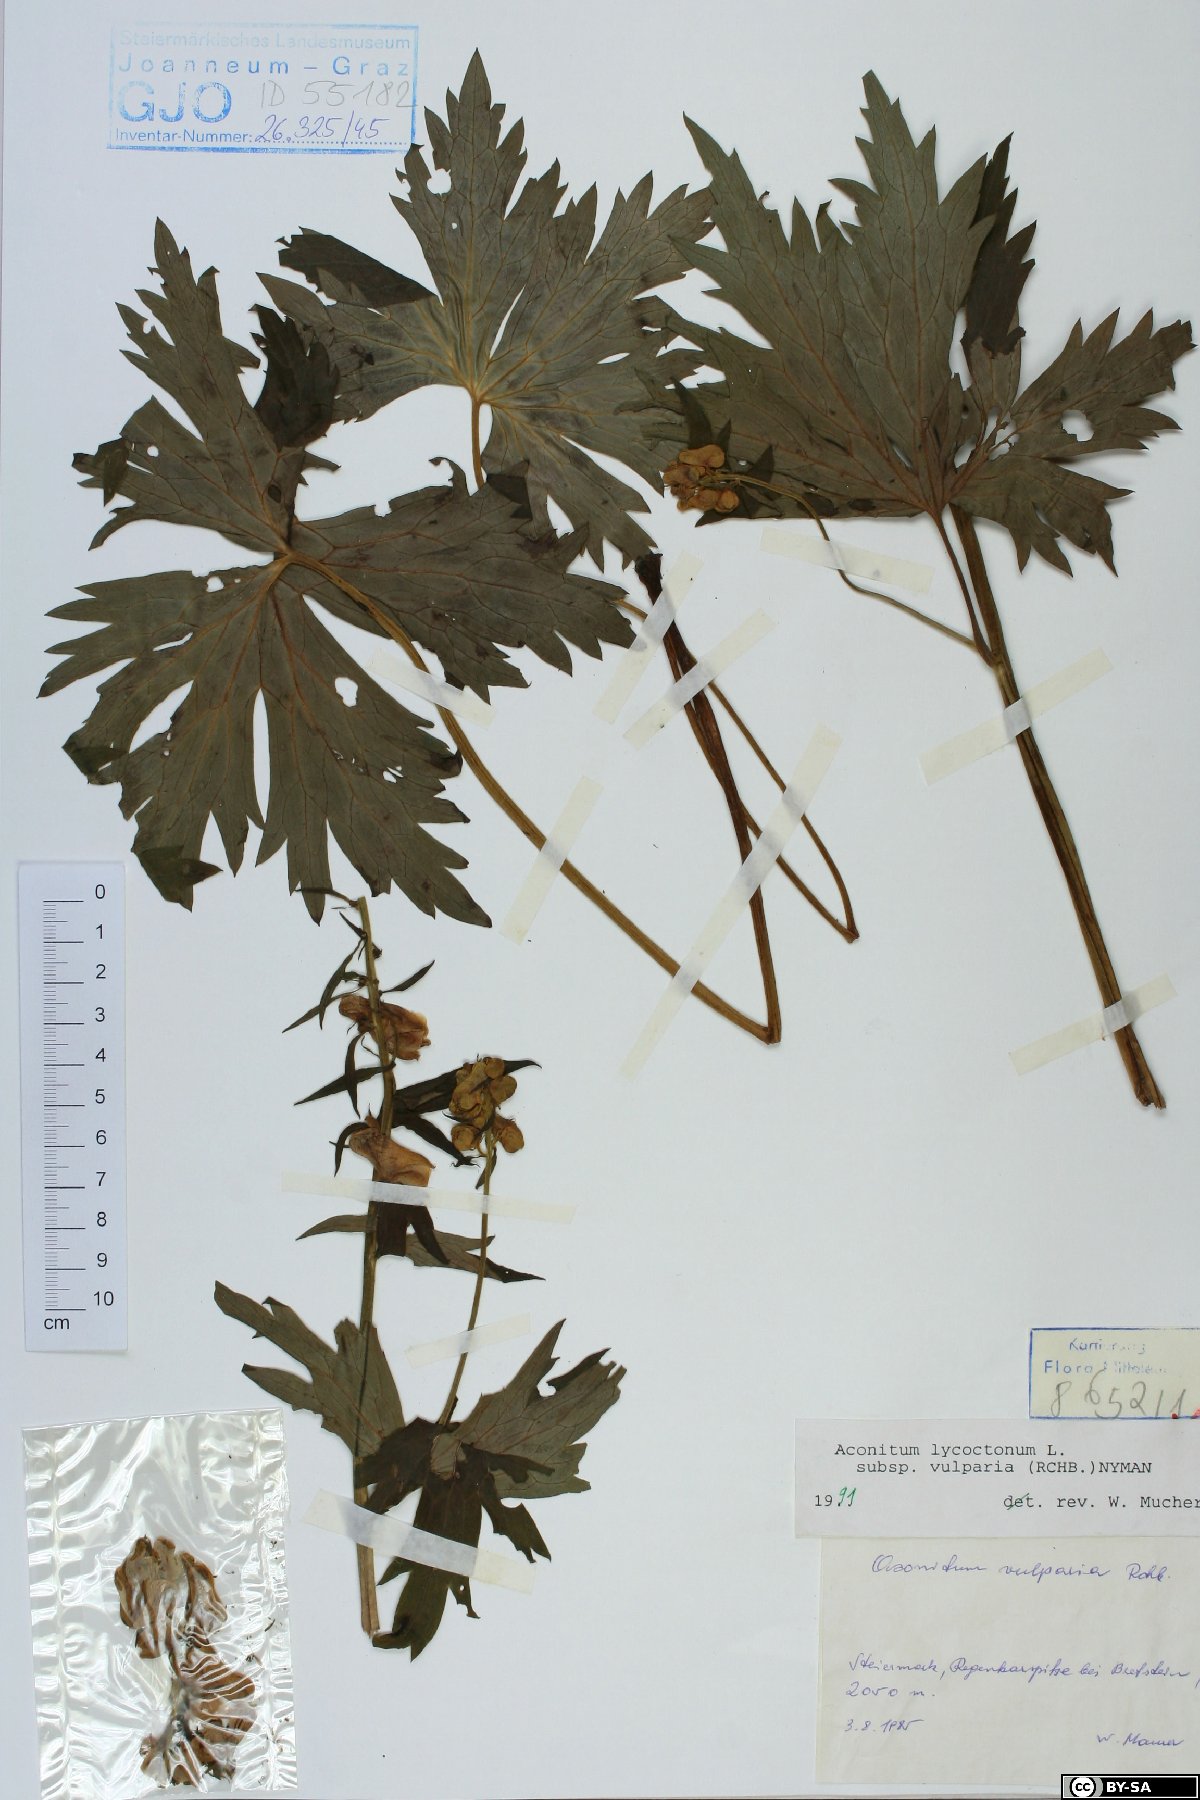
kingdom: Plantae
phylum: Tracheophyta
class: Magnoliopsida
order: Ranunculales
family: Ranunculaceae
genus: Aconitum
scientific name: Aconitum lycoctonum
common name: Wolf's-bane
